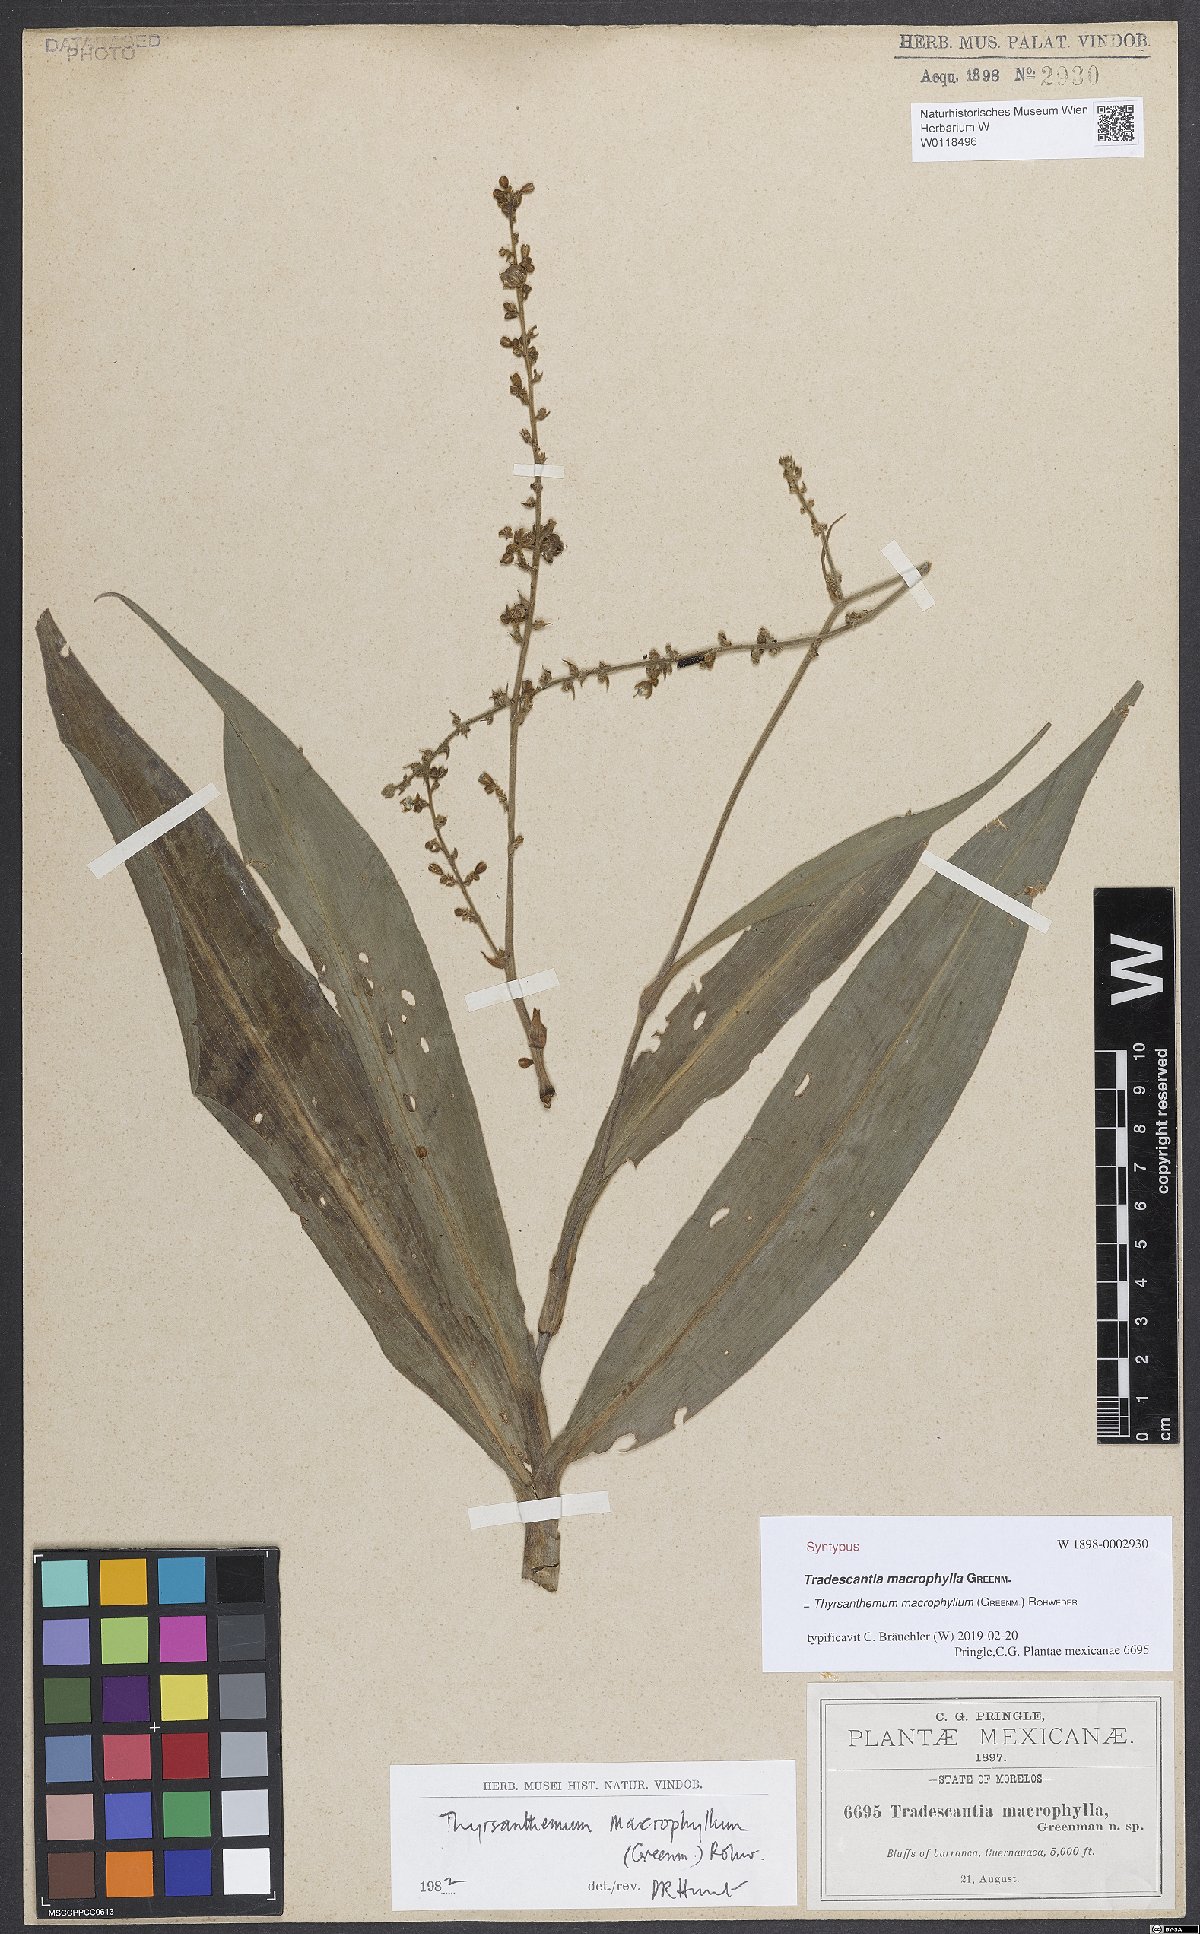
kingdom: Plantae
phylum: Tracheophyta
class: Liliopsida
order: Commelinales
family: Commelinaceae
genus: Thyrsanthemum
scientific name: Thyrsanthemum longifolium
